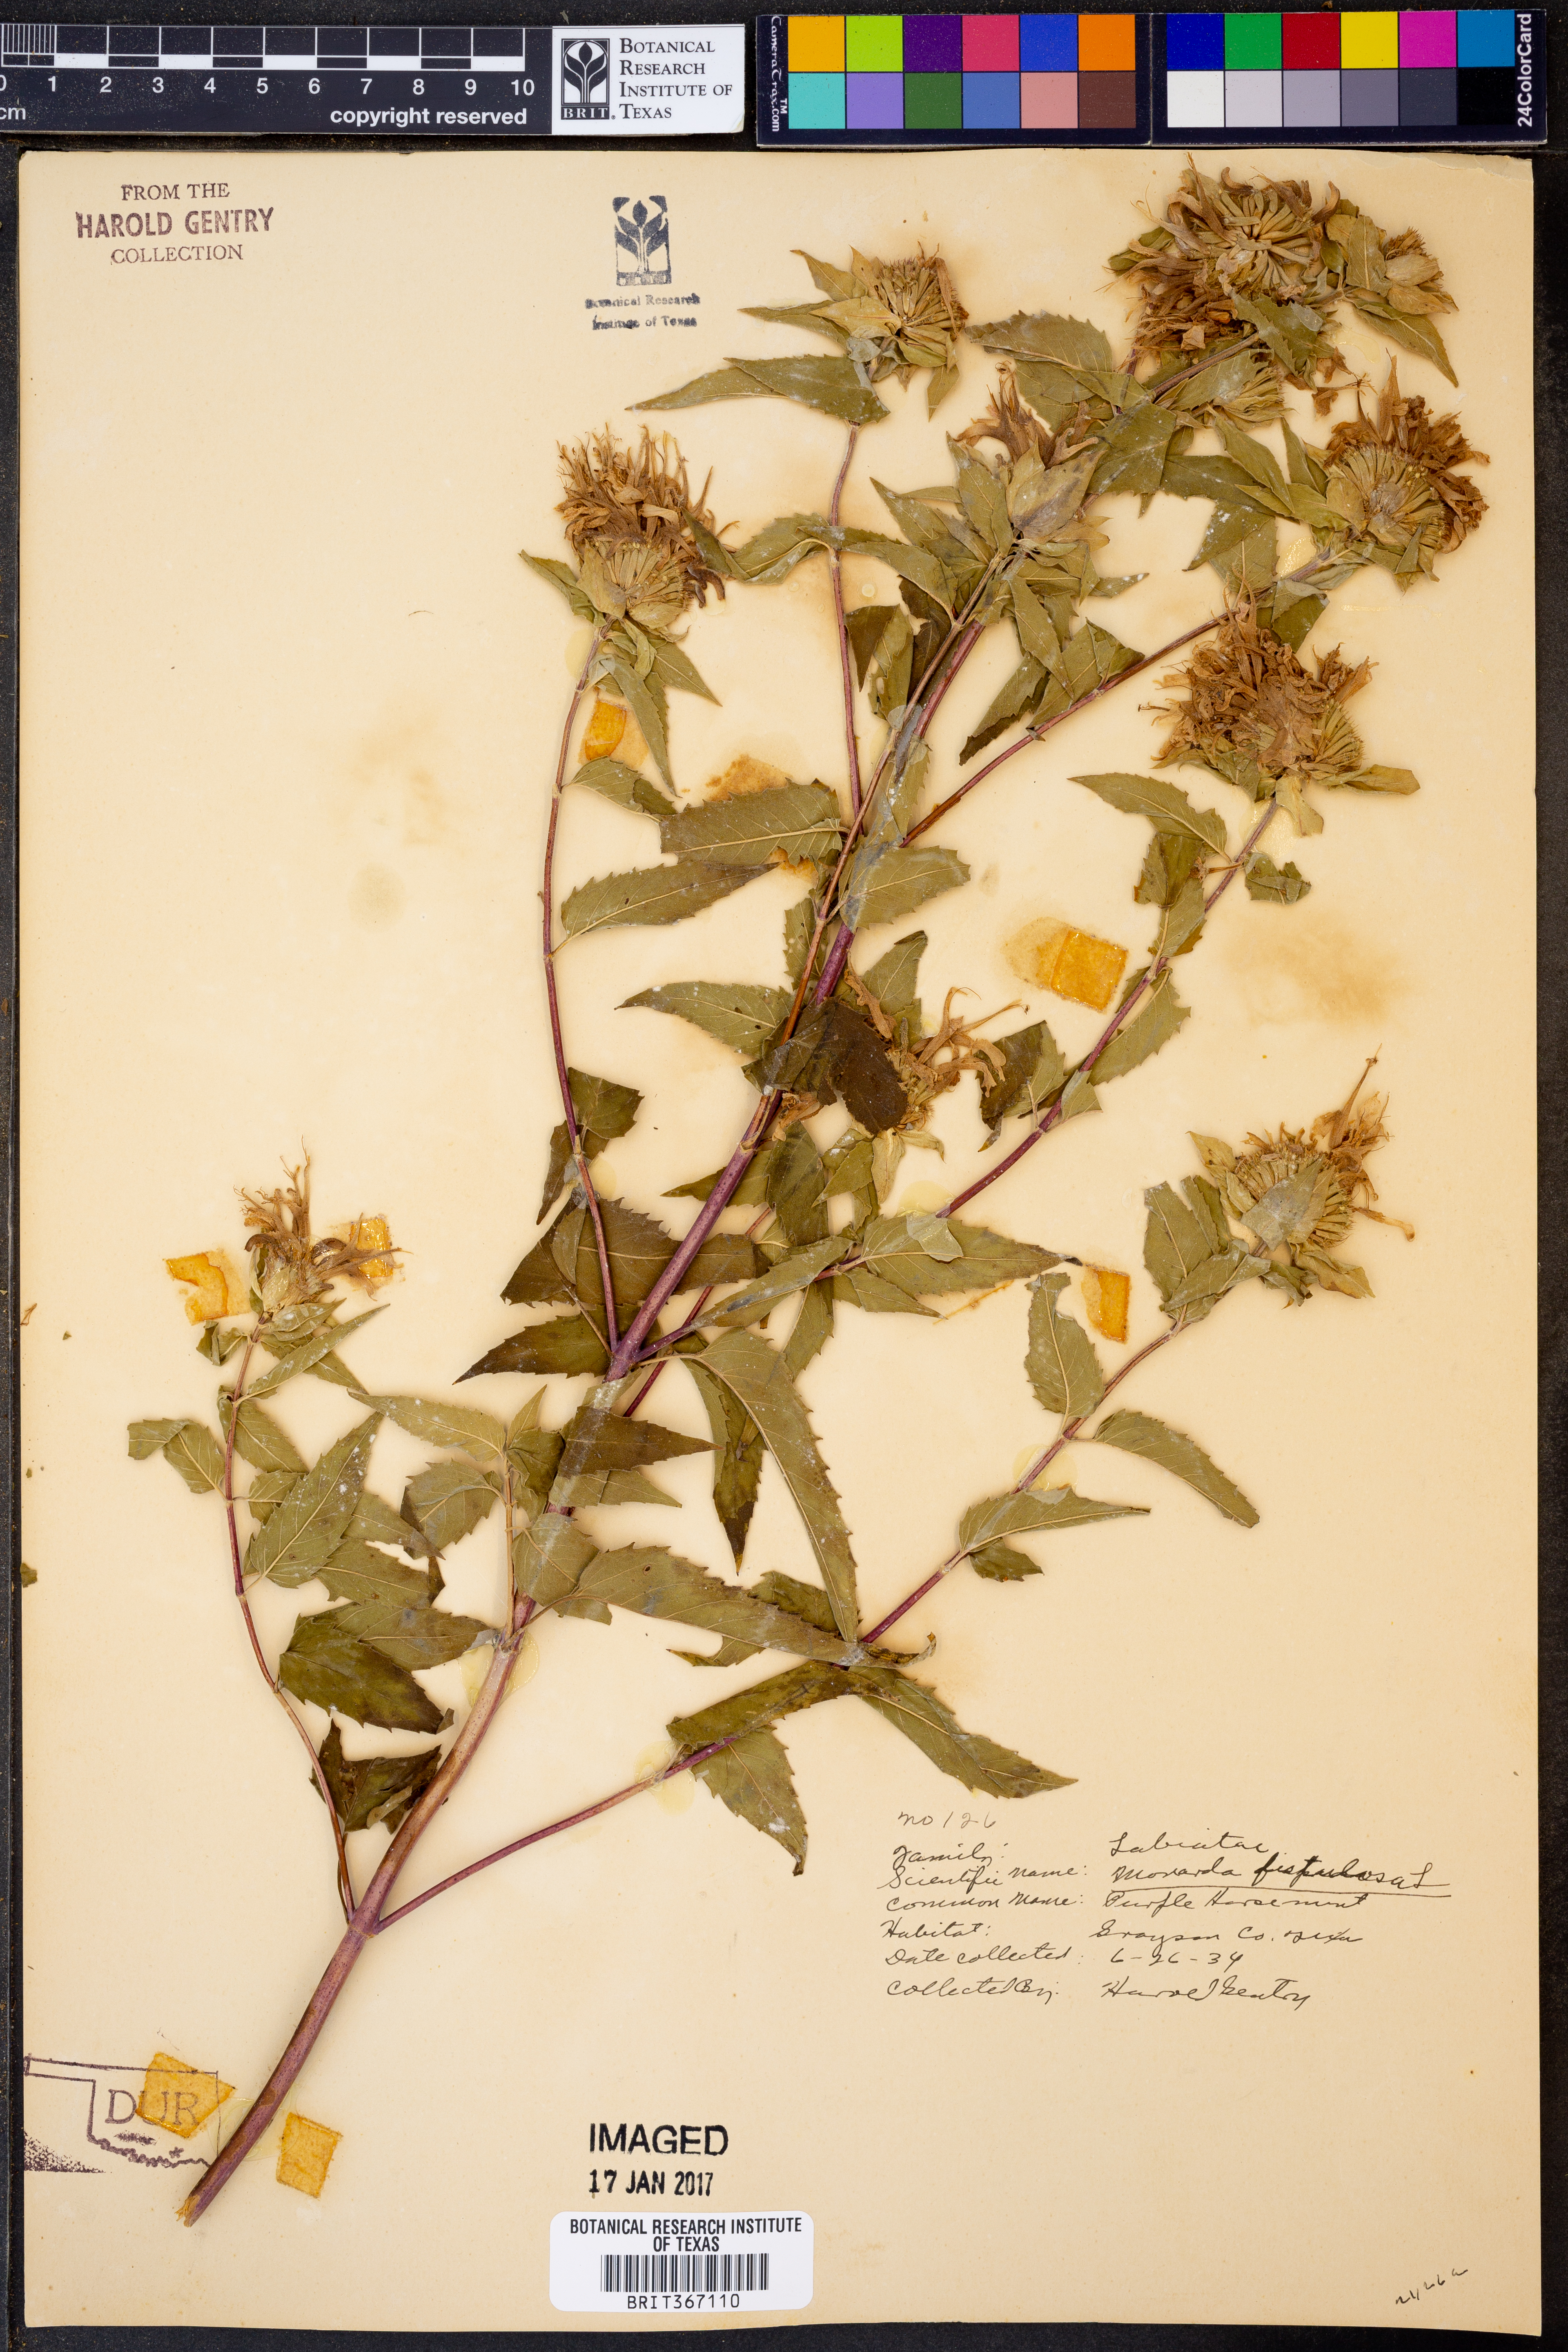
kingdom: Plantae
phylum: Tracheophyta
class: Magnoliopsida
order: Lamiales
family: Lamiaceae
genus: Monarda
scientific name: Monarda fistulosa
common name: Purple beebalm
